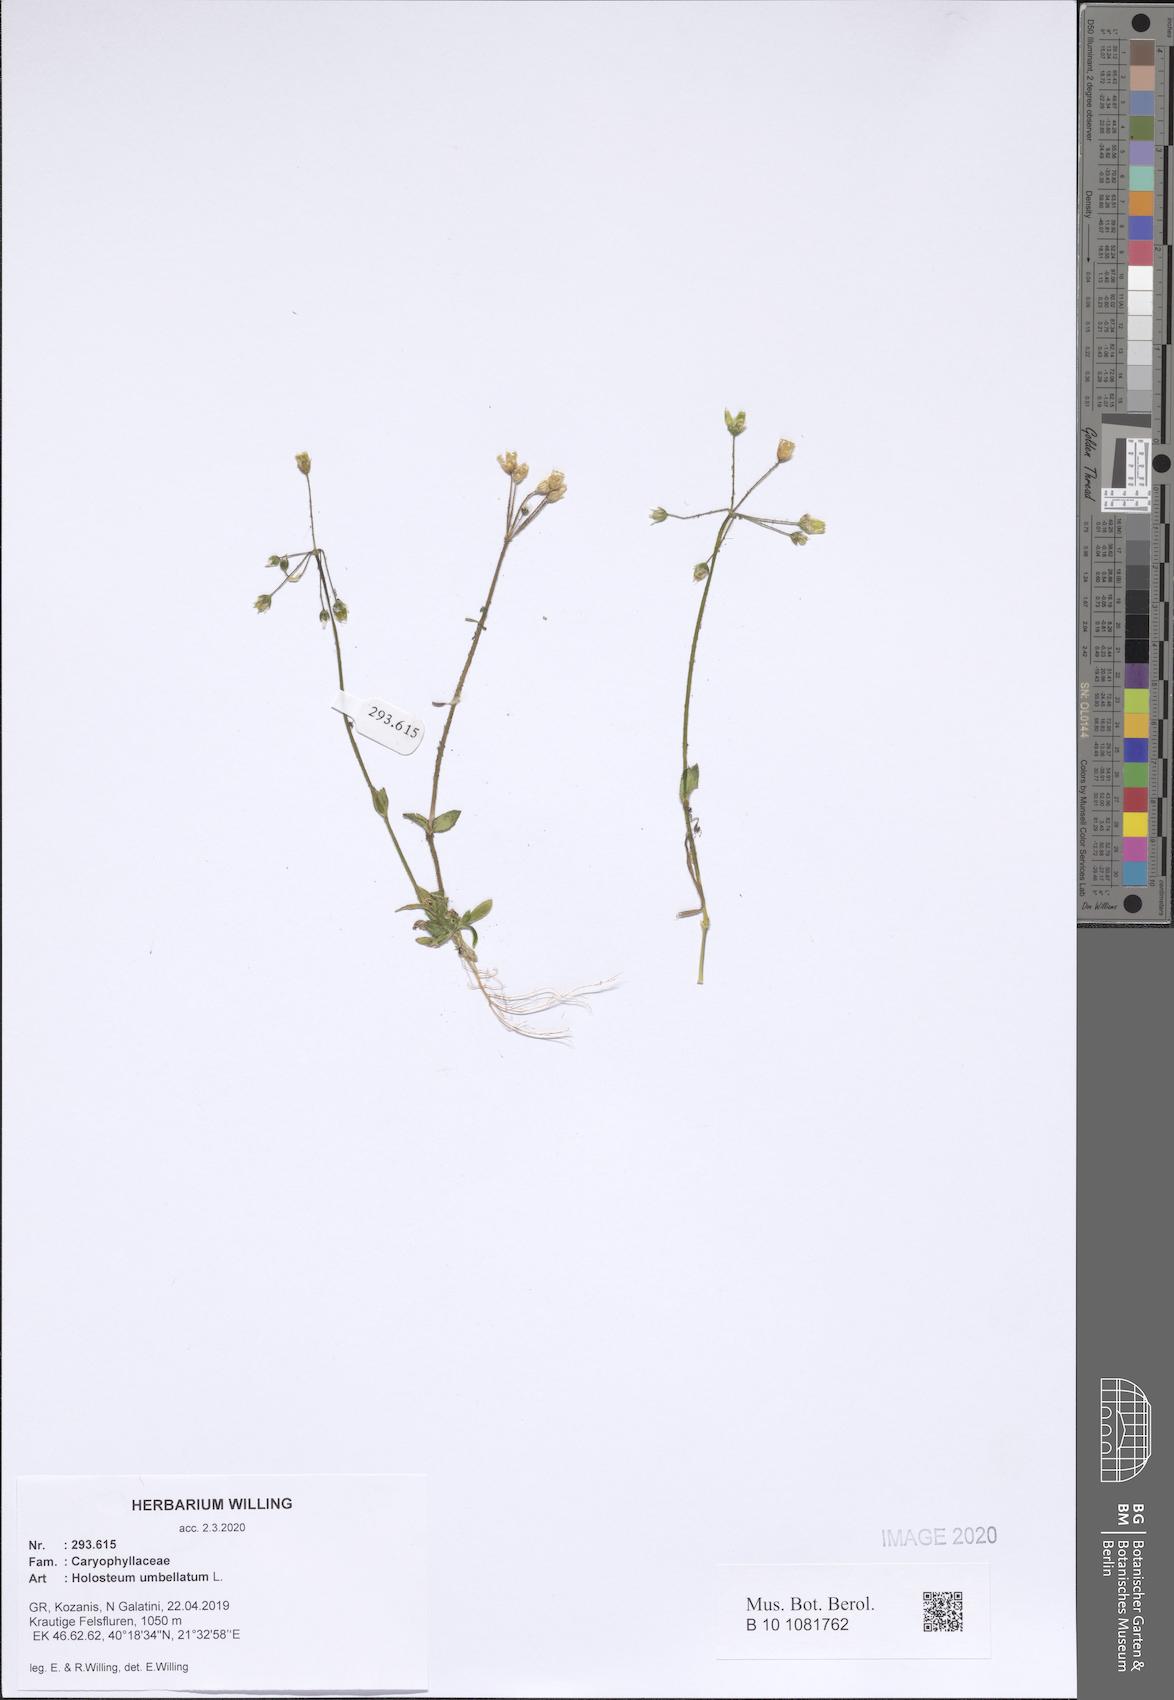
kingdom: Plantae
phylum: Tracheophyta
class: Magnoliopsida
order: Caryophyllales
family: Caryophyllaceae
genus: Holosteum
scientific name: Holosteum umbellatum
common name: Jagged chickweed
